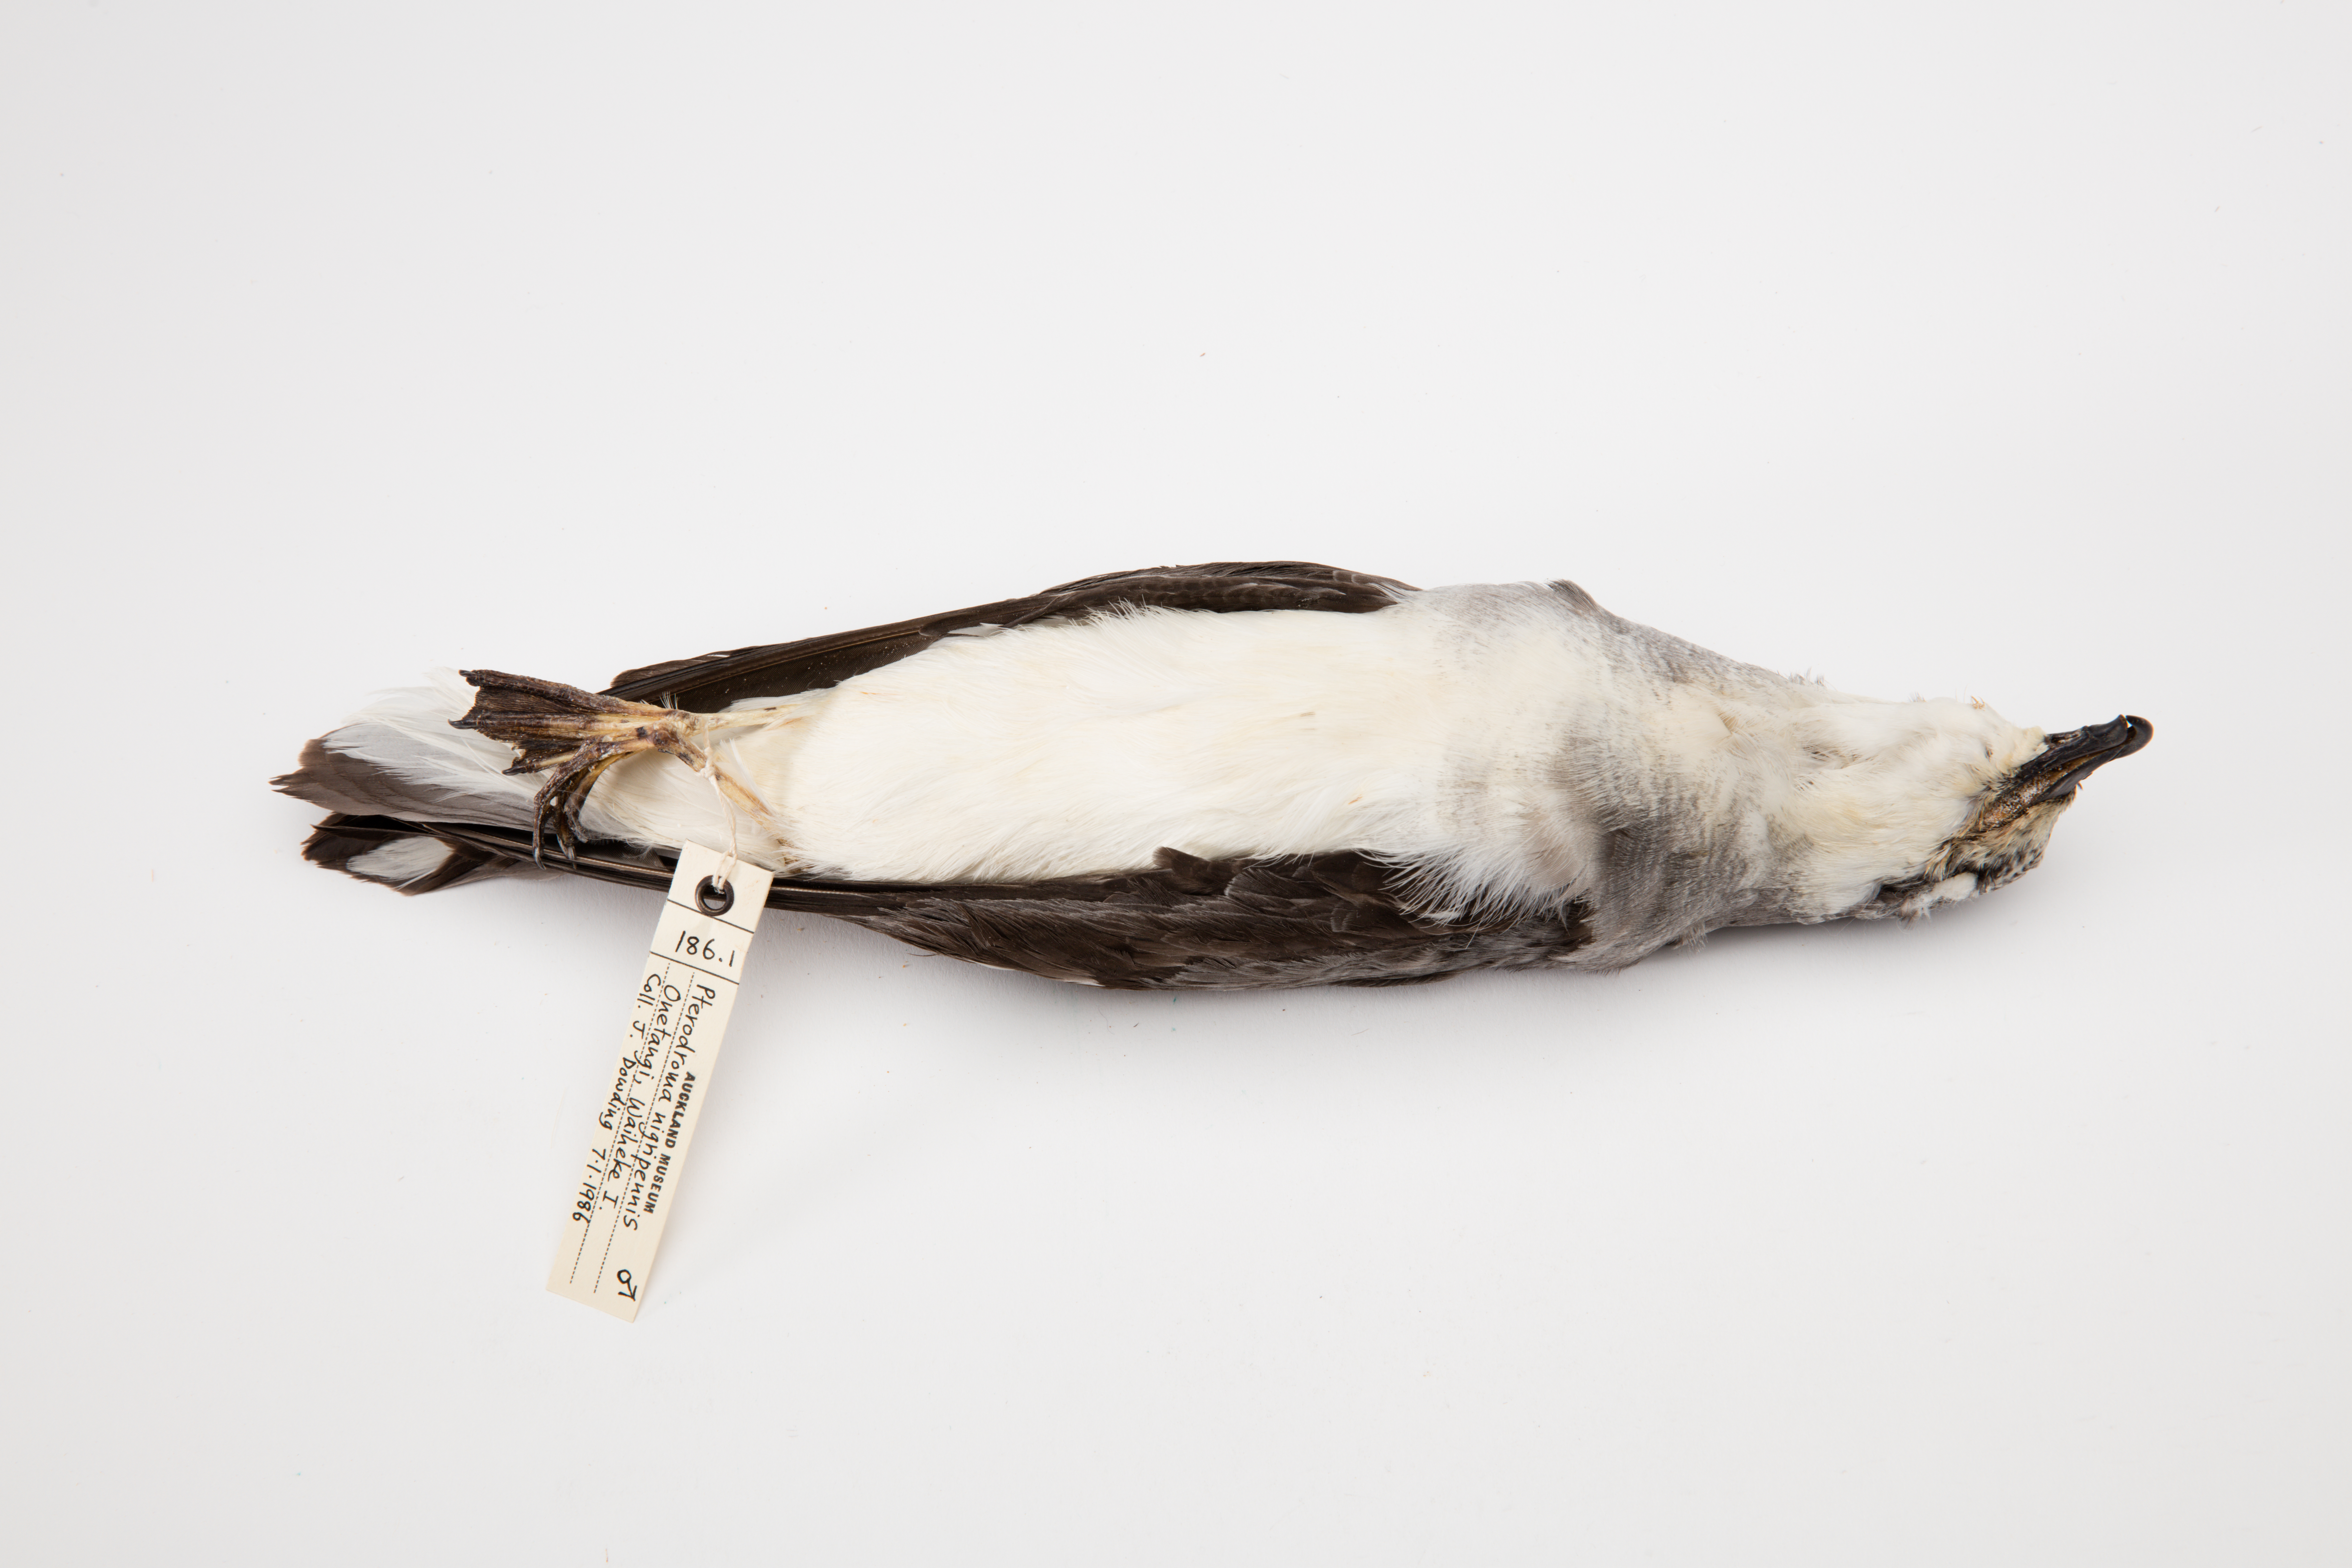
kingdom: Animalia
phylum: Chordata
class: Aves
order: Procellariiformes
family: Procellariidae
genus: Pterodroma
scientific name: Pterodroma nigripennis
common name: Black-winged petrel
